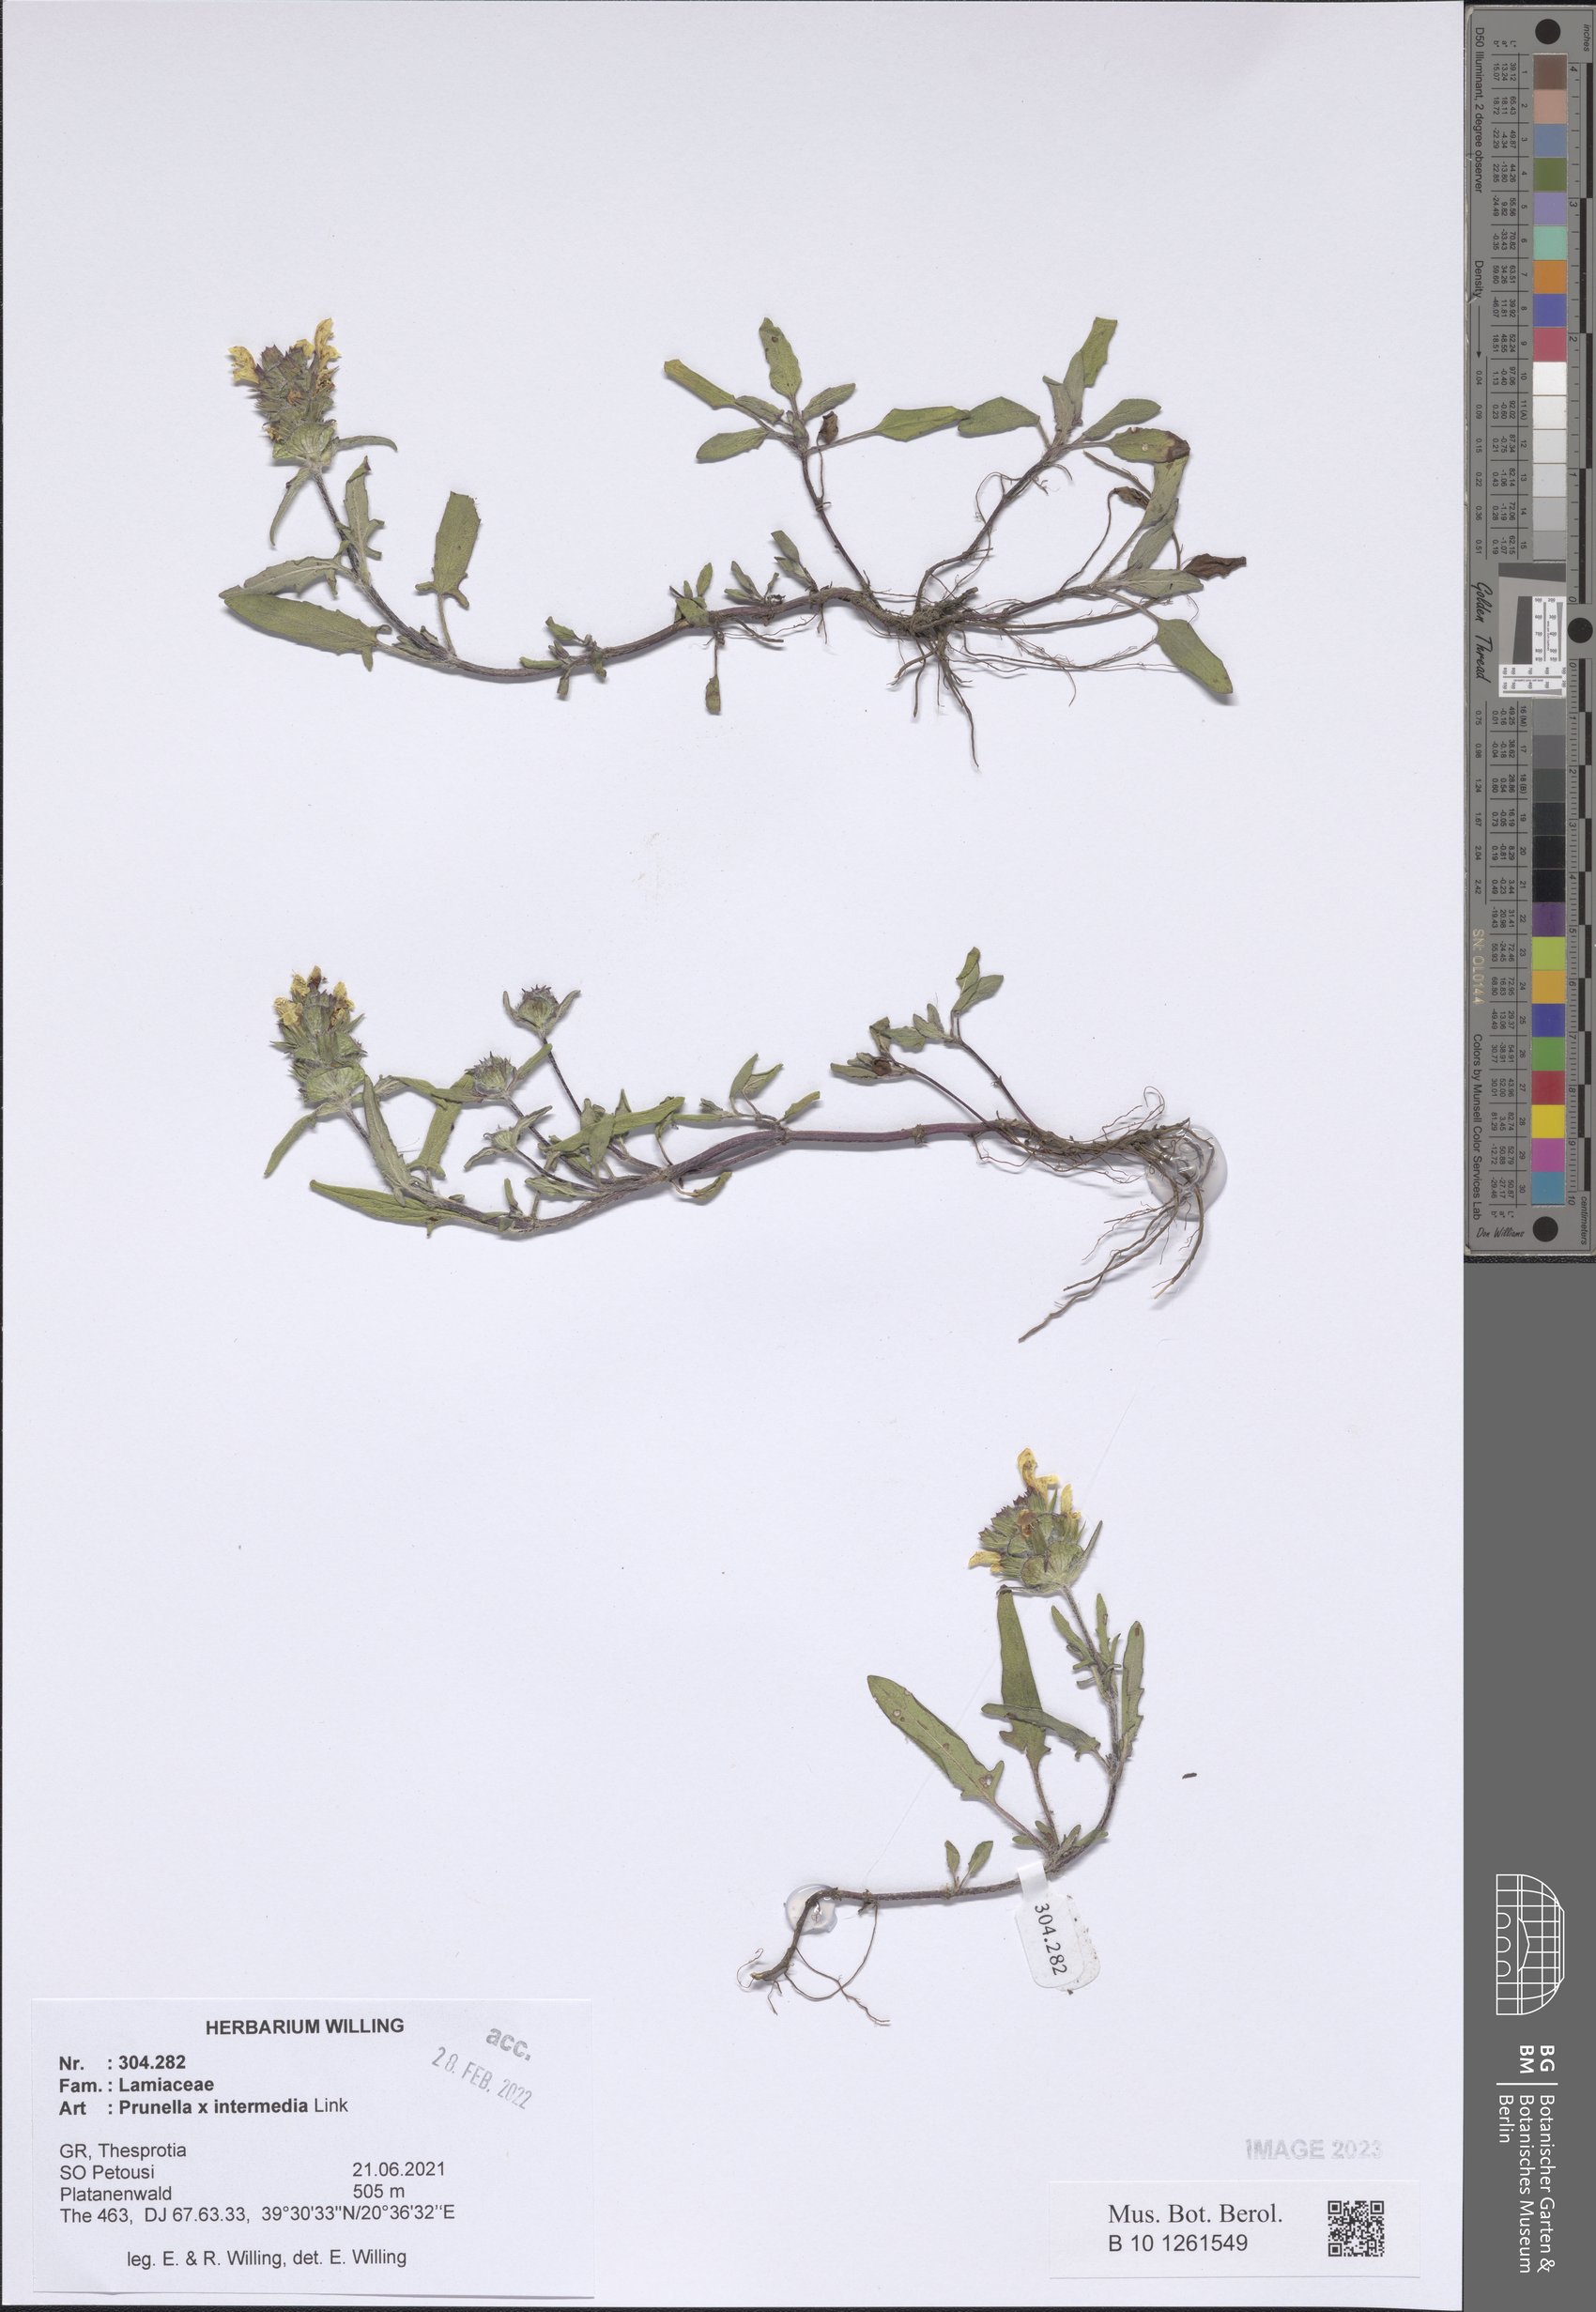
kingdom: Plantae
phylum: Tracheophyta
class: Magnoliopsida
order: Lamiales
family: Lamiaceae
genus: Prunella
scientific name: Prunella
